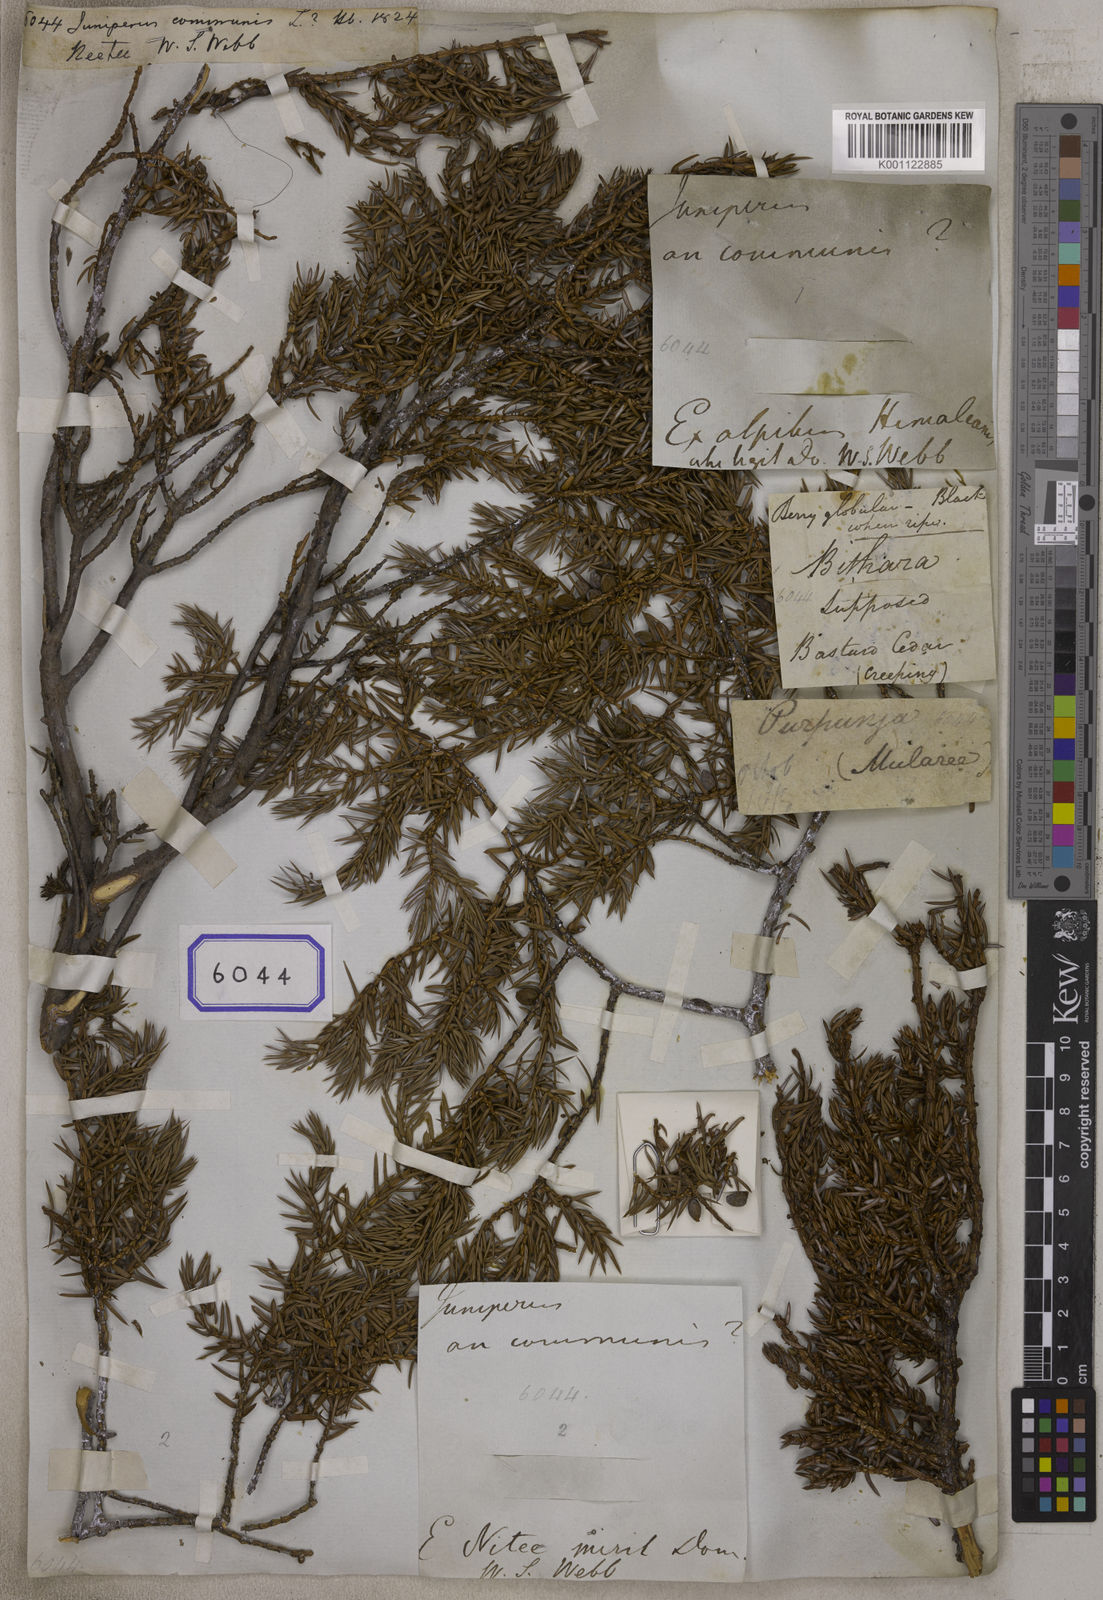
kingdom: Plantae
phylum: Tracheophyta
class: Pinopsida
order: Pinales
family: Cupressaceae
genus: Juniperus
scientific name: Juniperus communis
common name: Common juniper
